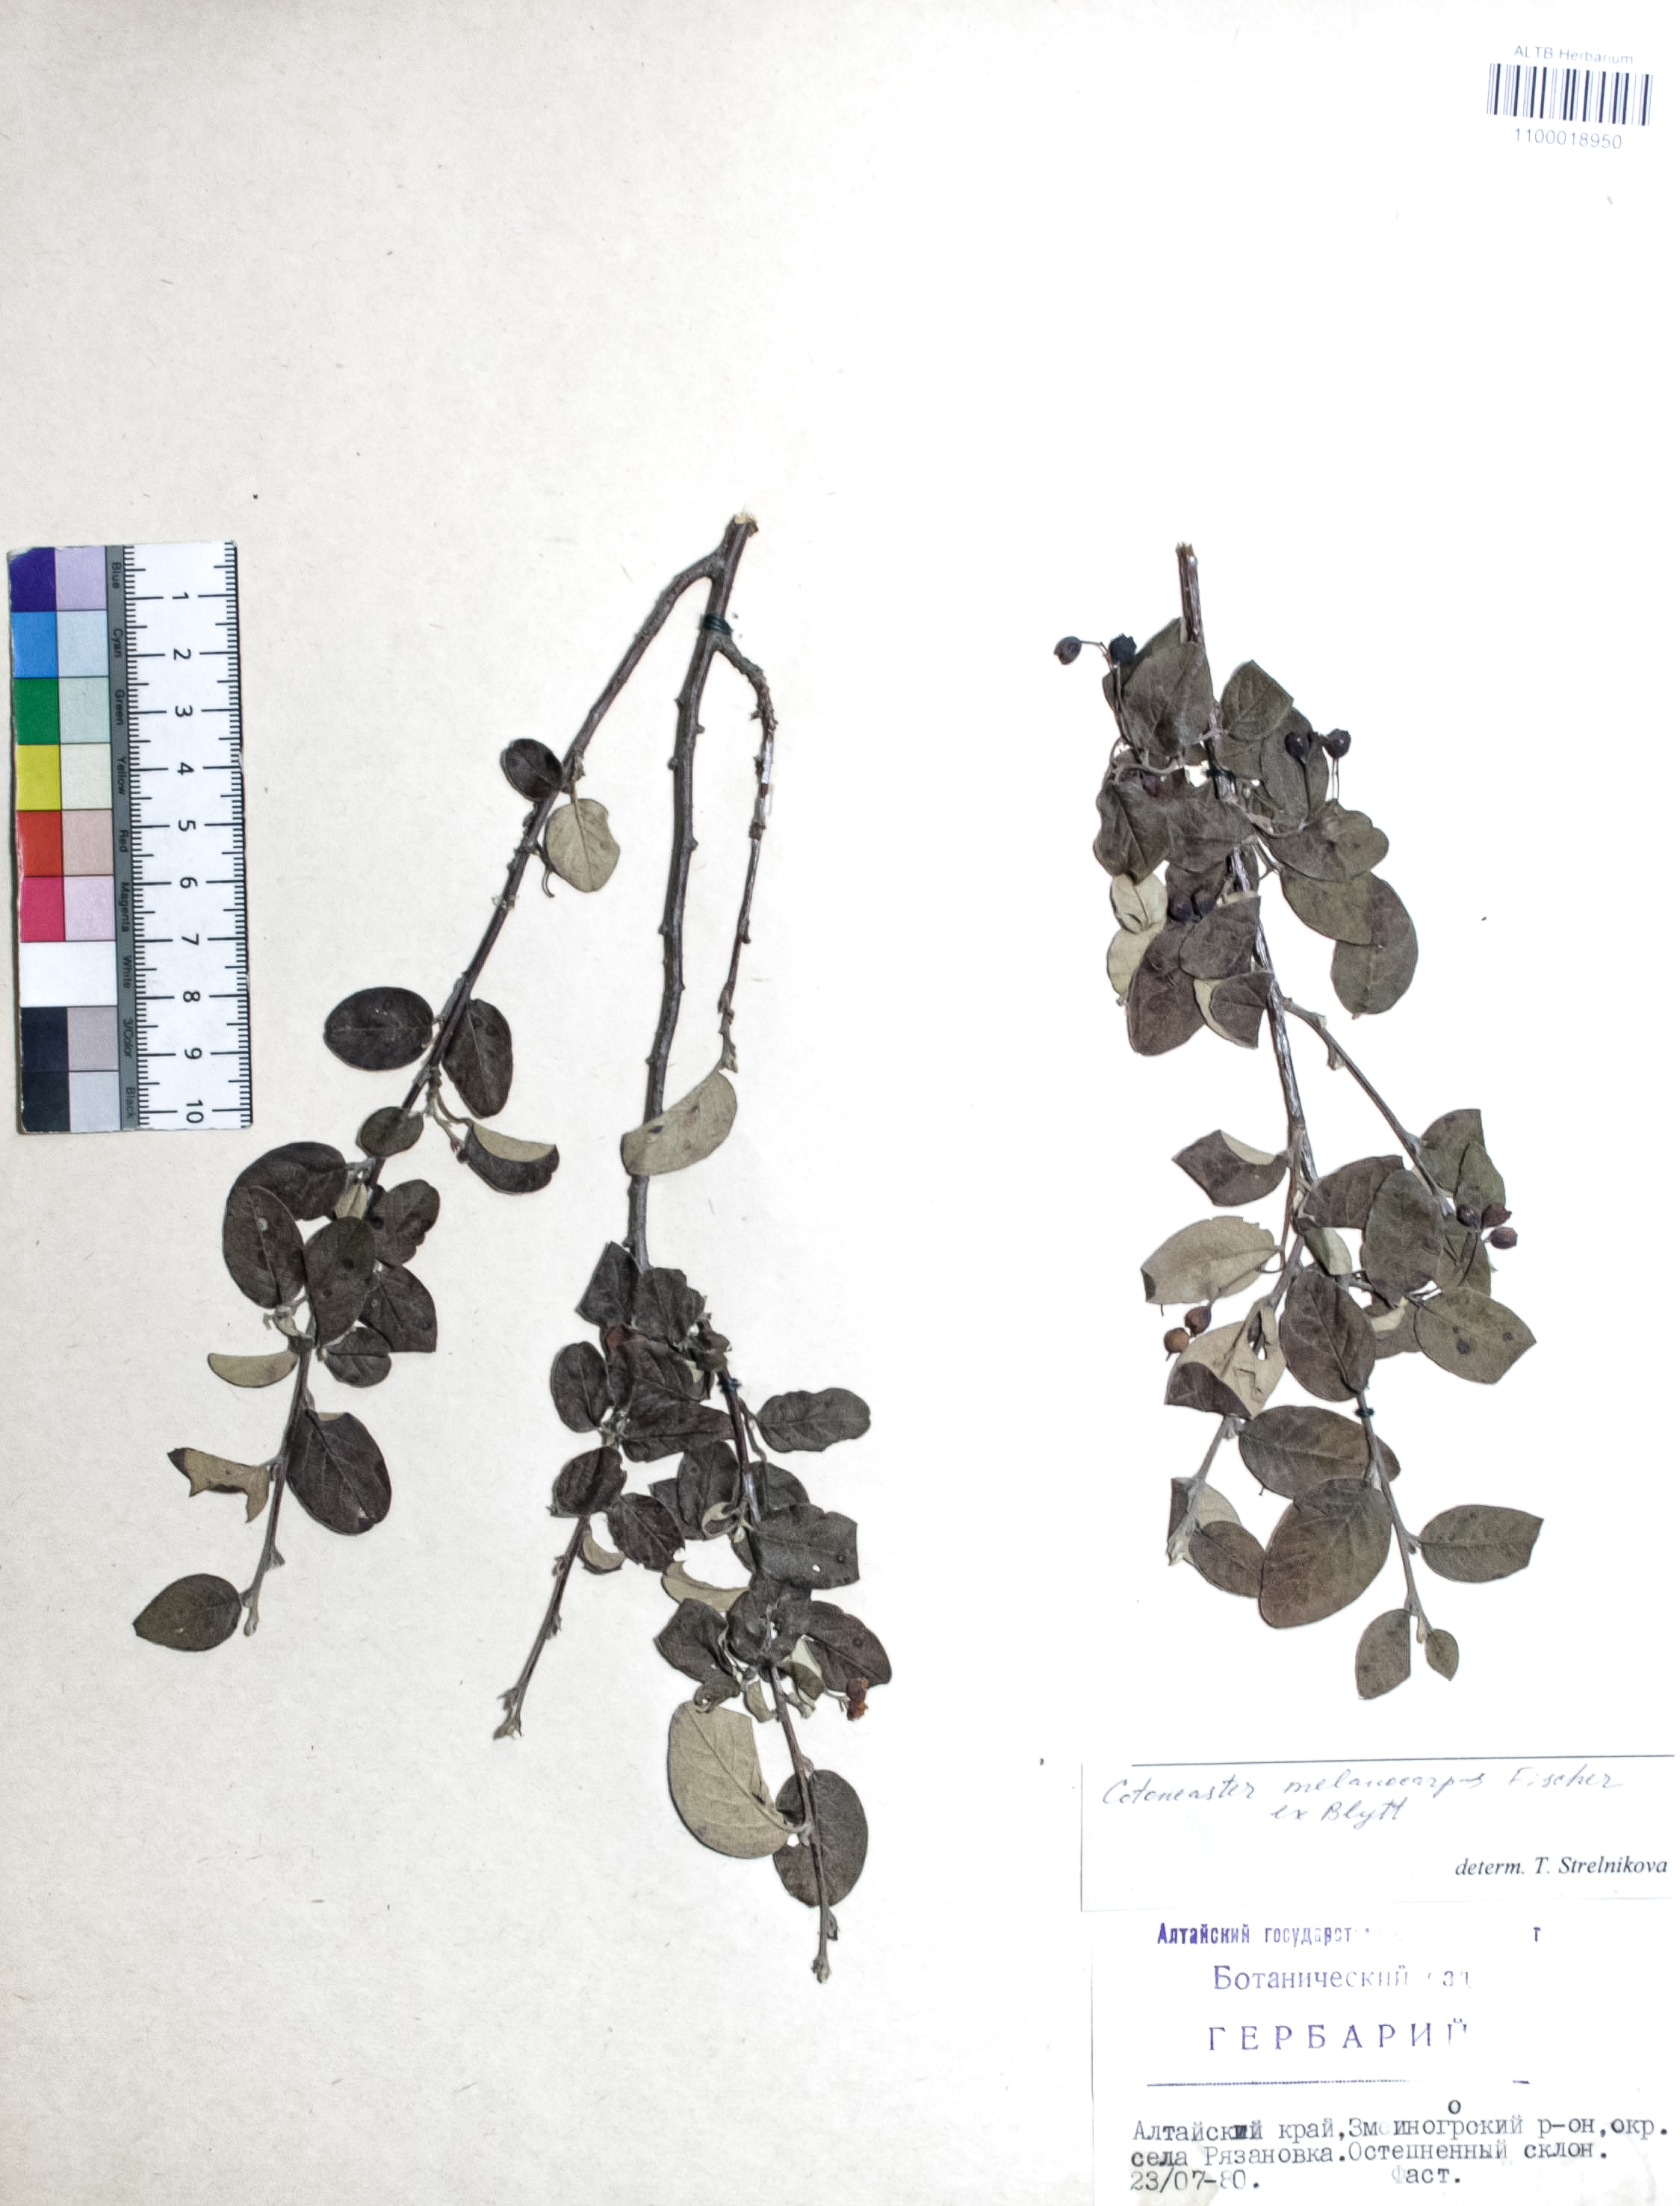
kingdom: Plantae
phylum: Tracheophyta
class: Magnoliopsida
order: Rosales
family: Rosaceae
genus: Cotoneaster
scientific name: Cotoneaster niger
